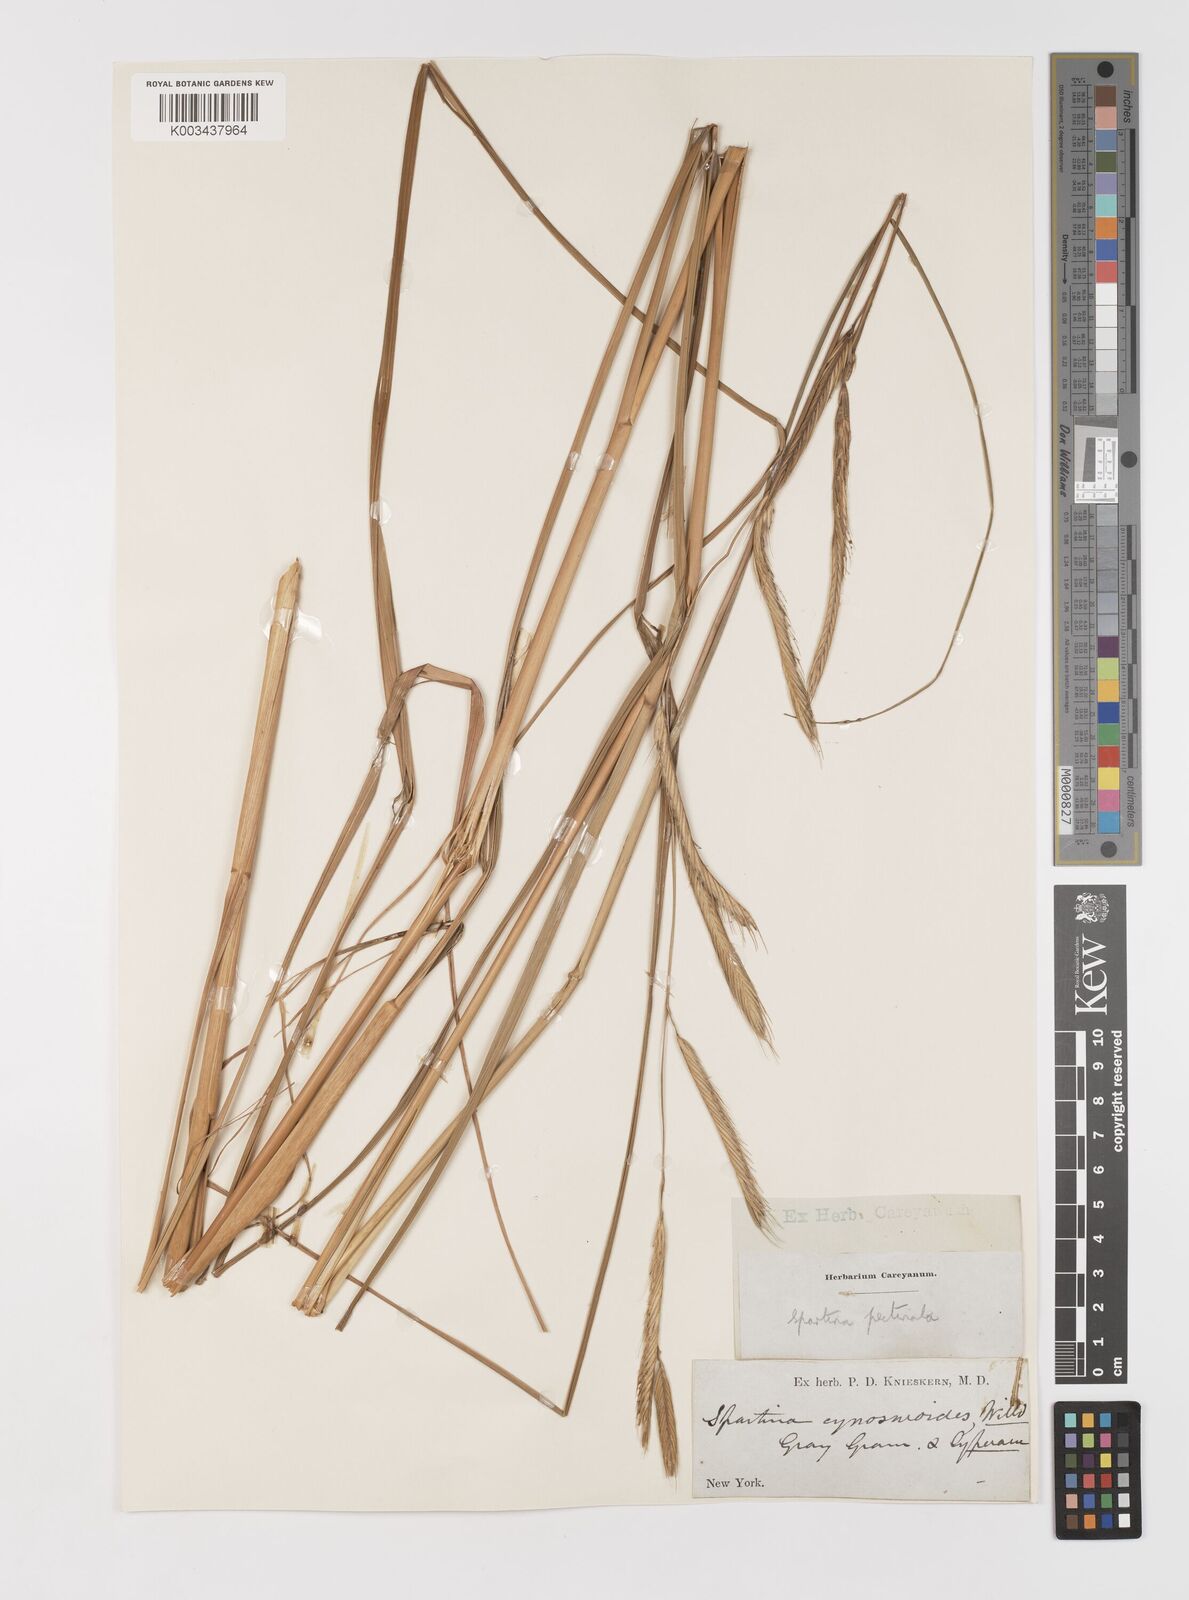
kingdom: Plantae
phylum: Tracheophyta
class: Liliopsida
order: Poales
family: Poaceae
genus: Sporobolus
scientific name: Sporobolus michauxianus
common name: Freshwater cordgrass
